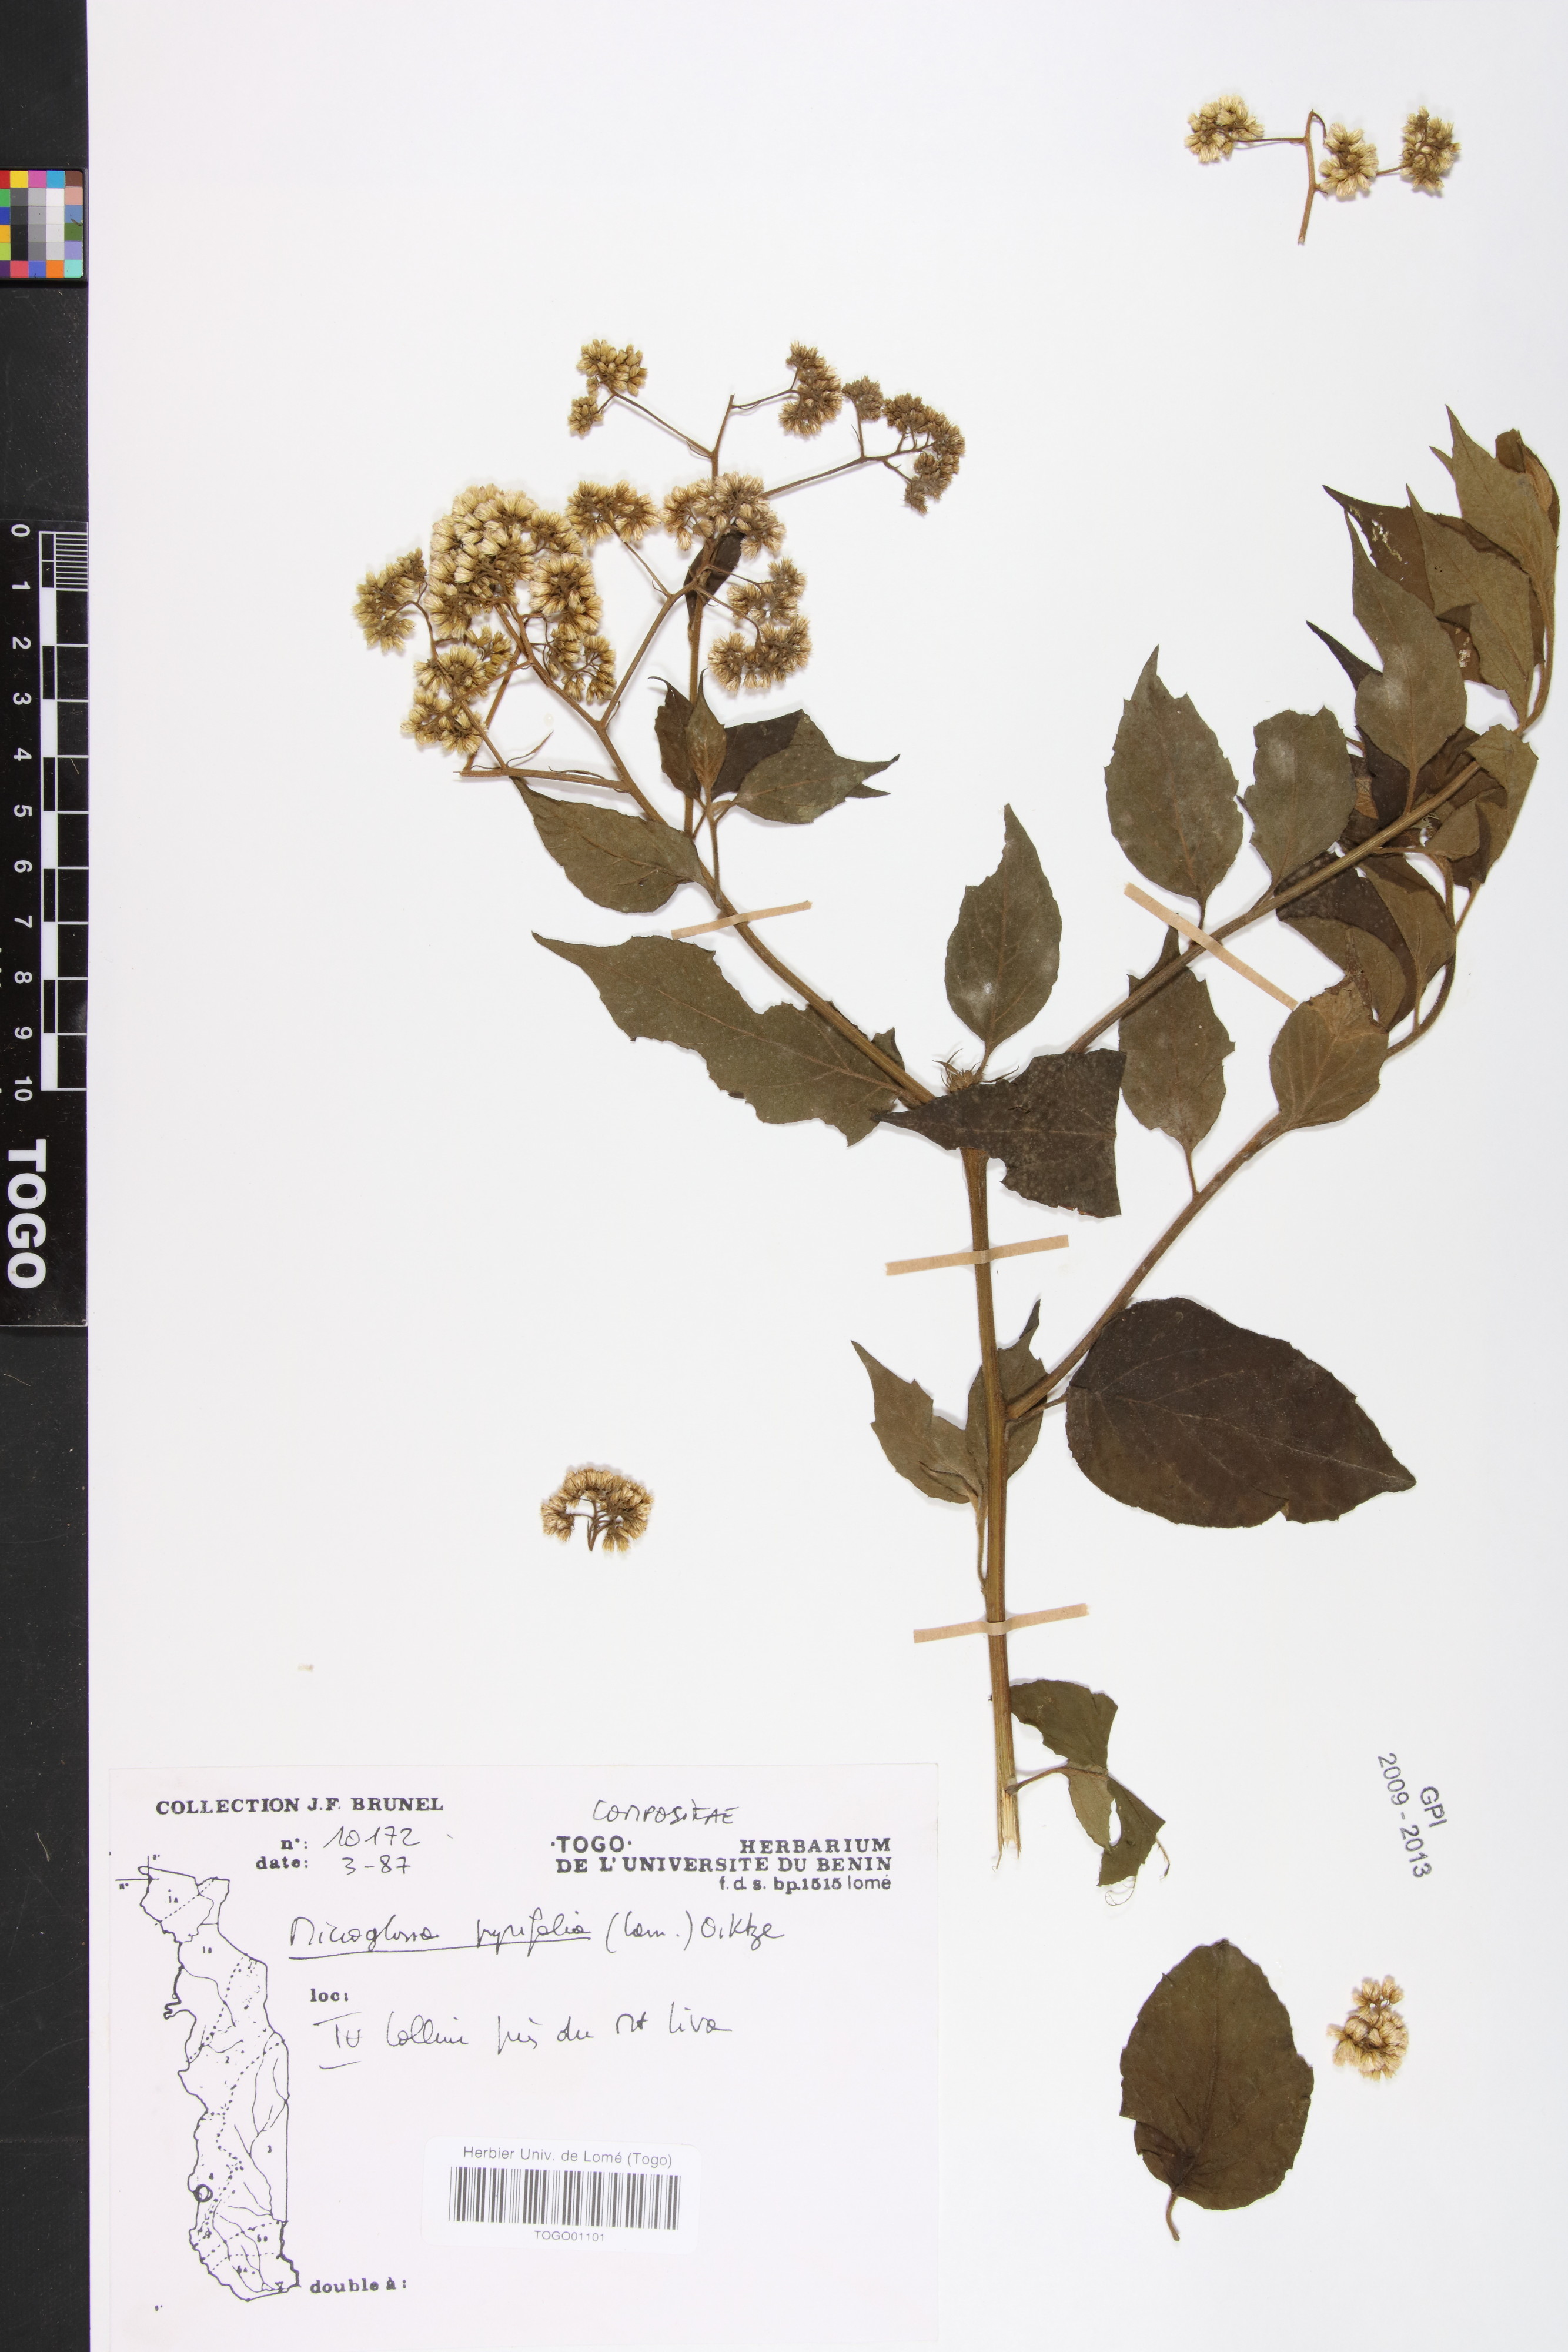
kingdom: Plantae
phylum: Tracheophyta
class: Magnoliopsida
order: Asterales
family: Asteraceae
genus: Microglossa
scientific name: Microglossa pyrifolia
